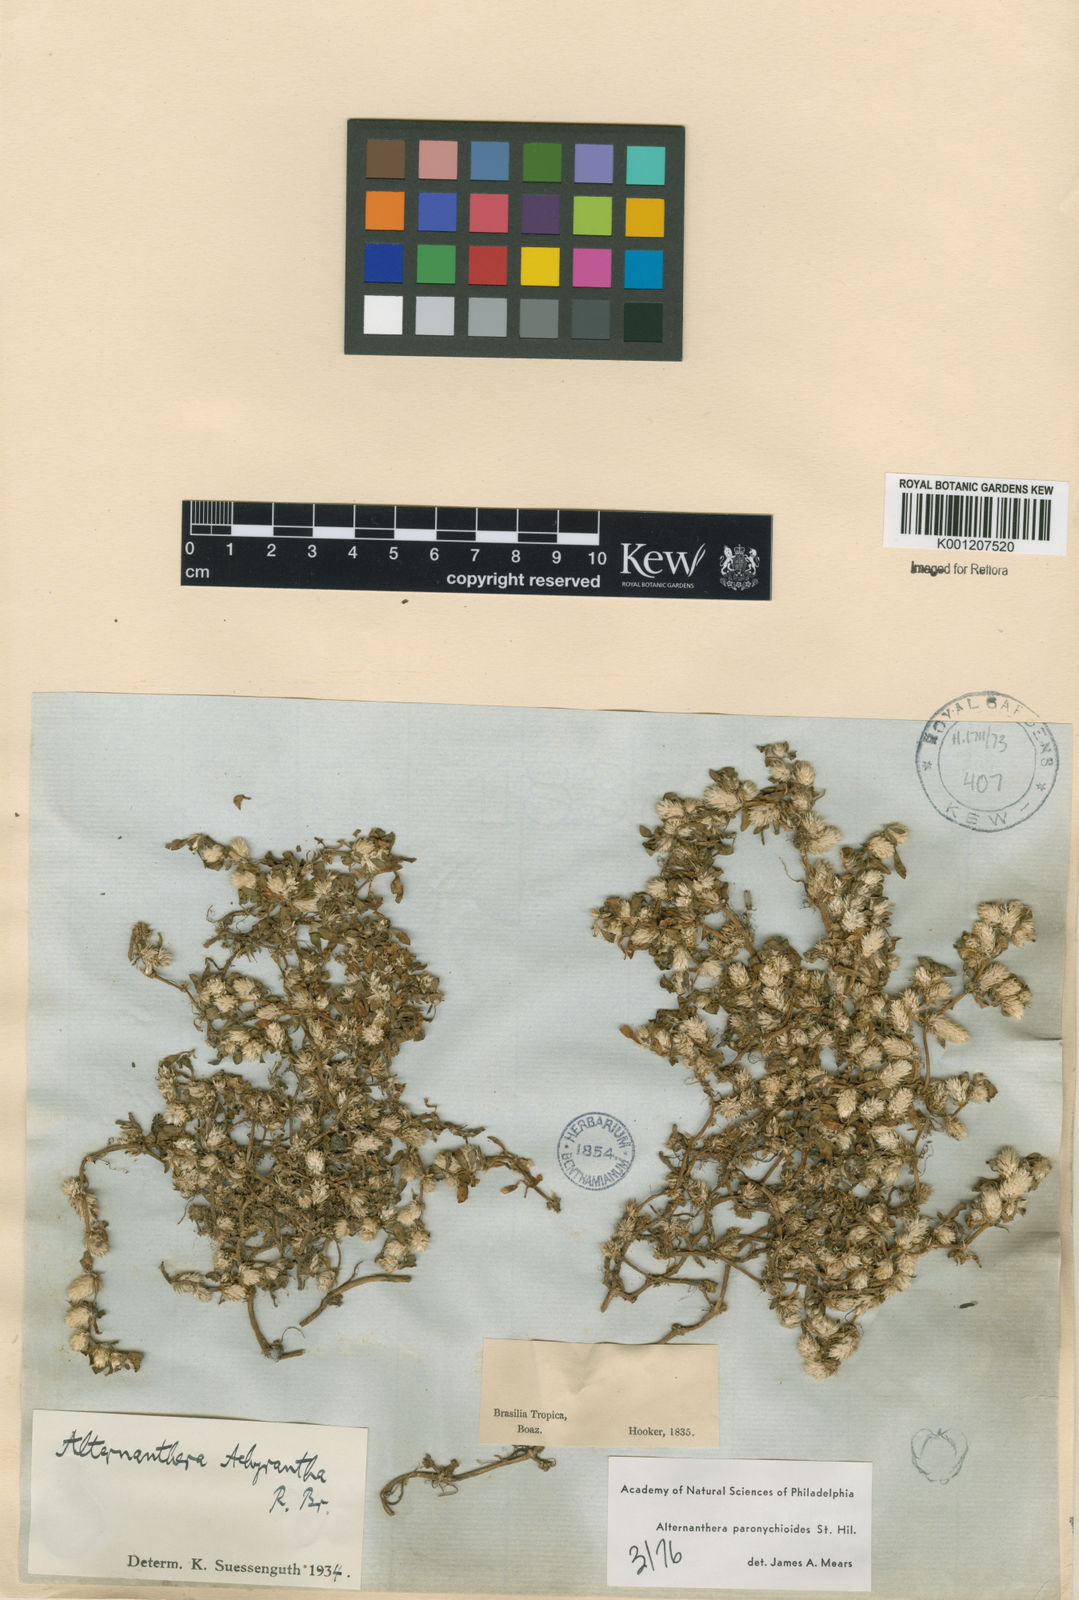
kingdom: Plantae
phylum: Tracheophyta
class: Magnoliopsida
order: Caryophyllales
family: Amaranthaceae
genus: Alternanthera
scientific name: Alternanthera paronychioides
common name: Smooth joyweed
